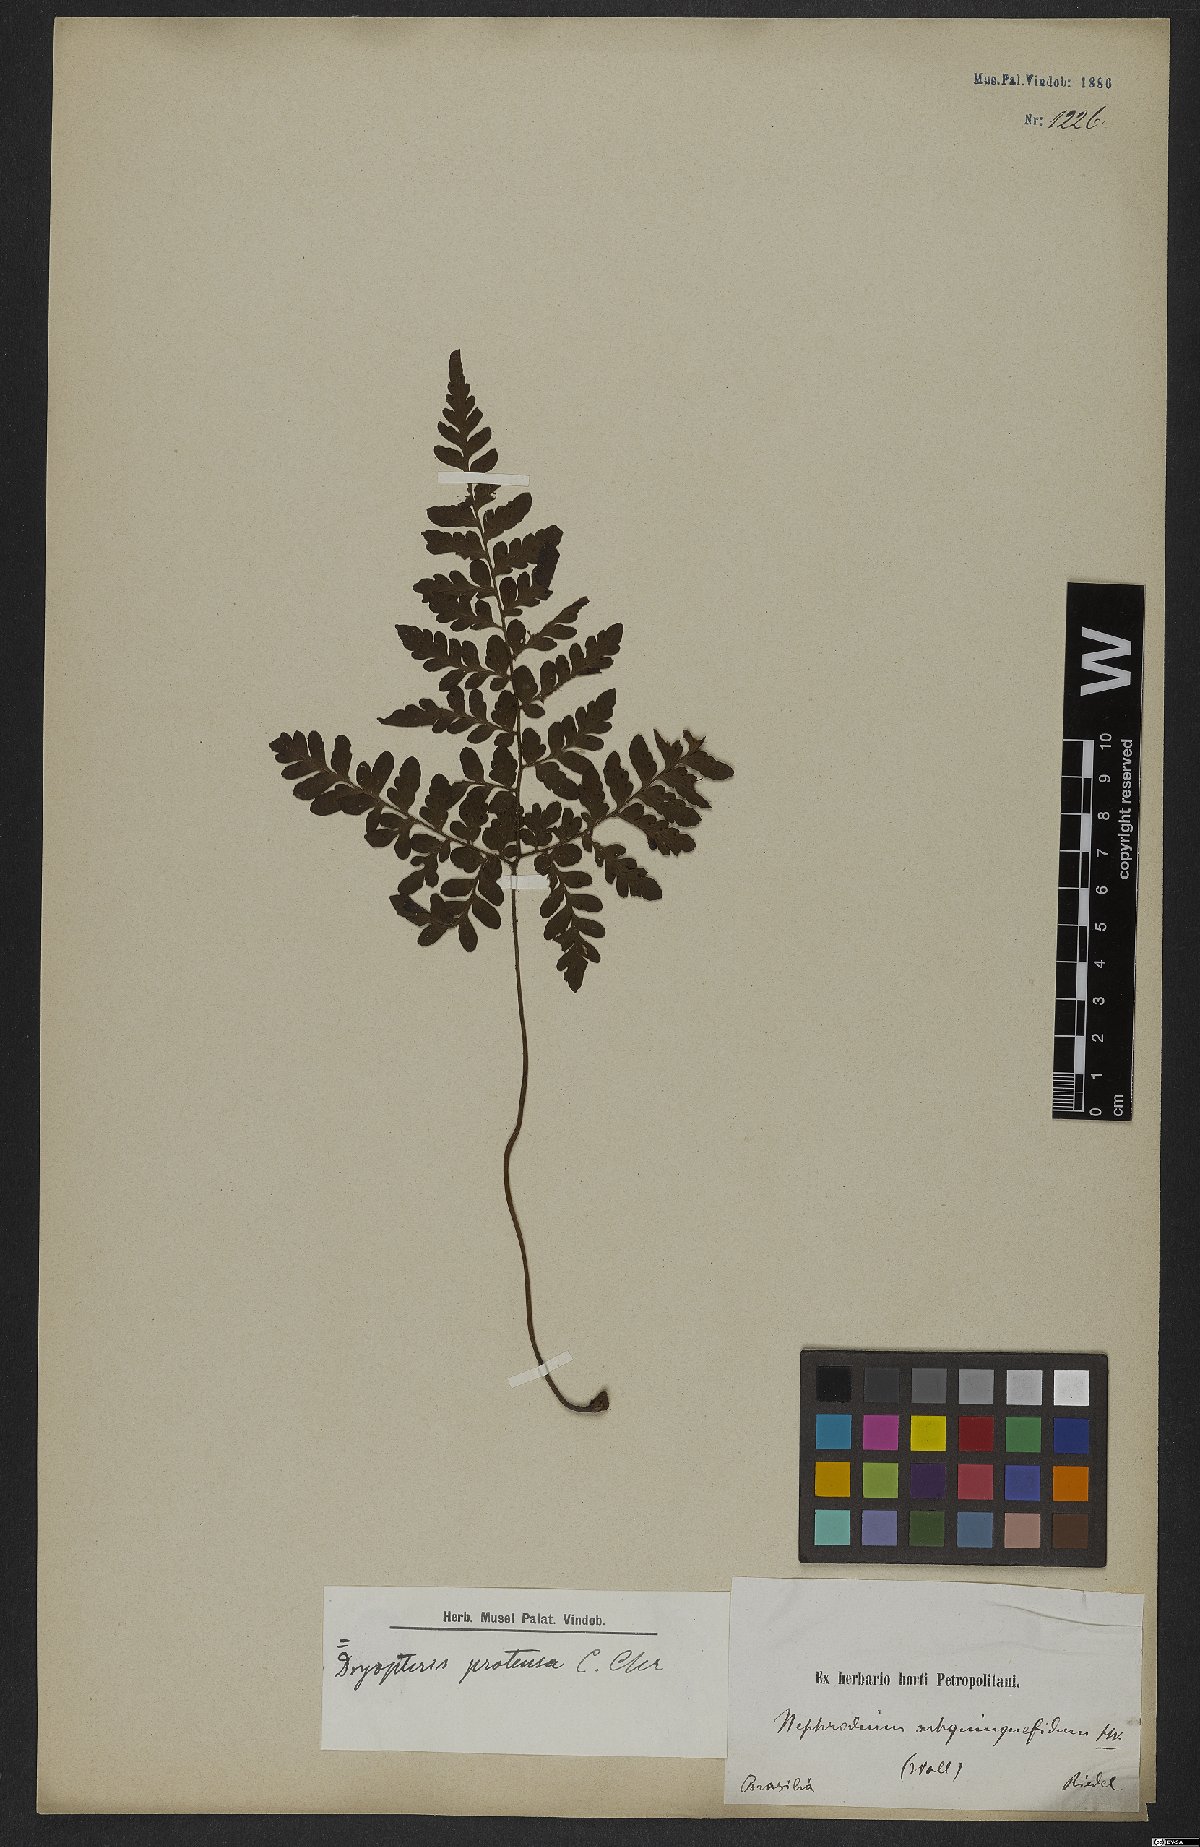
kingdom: Plantae
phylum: Tracheophyta
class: Polypodiopsida
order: Polypodiales
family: Tectariaceae
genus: Triplophyllum
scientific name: Triplophyllum protensum
